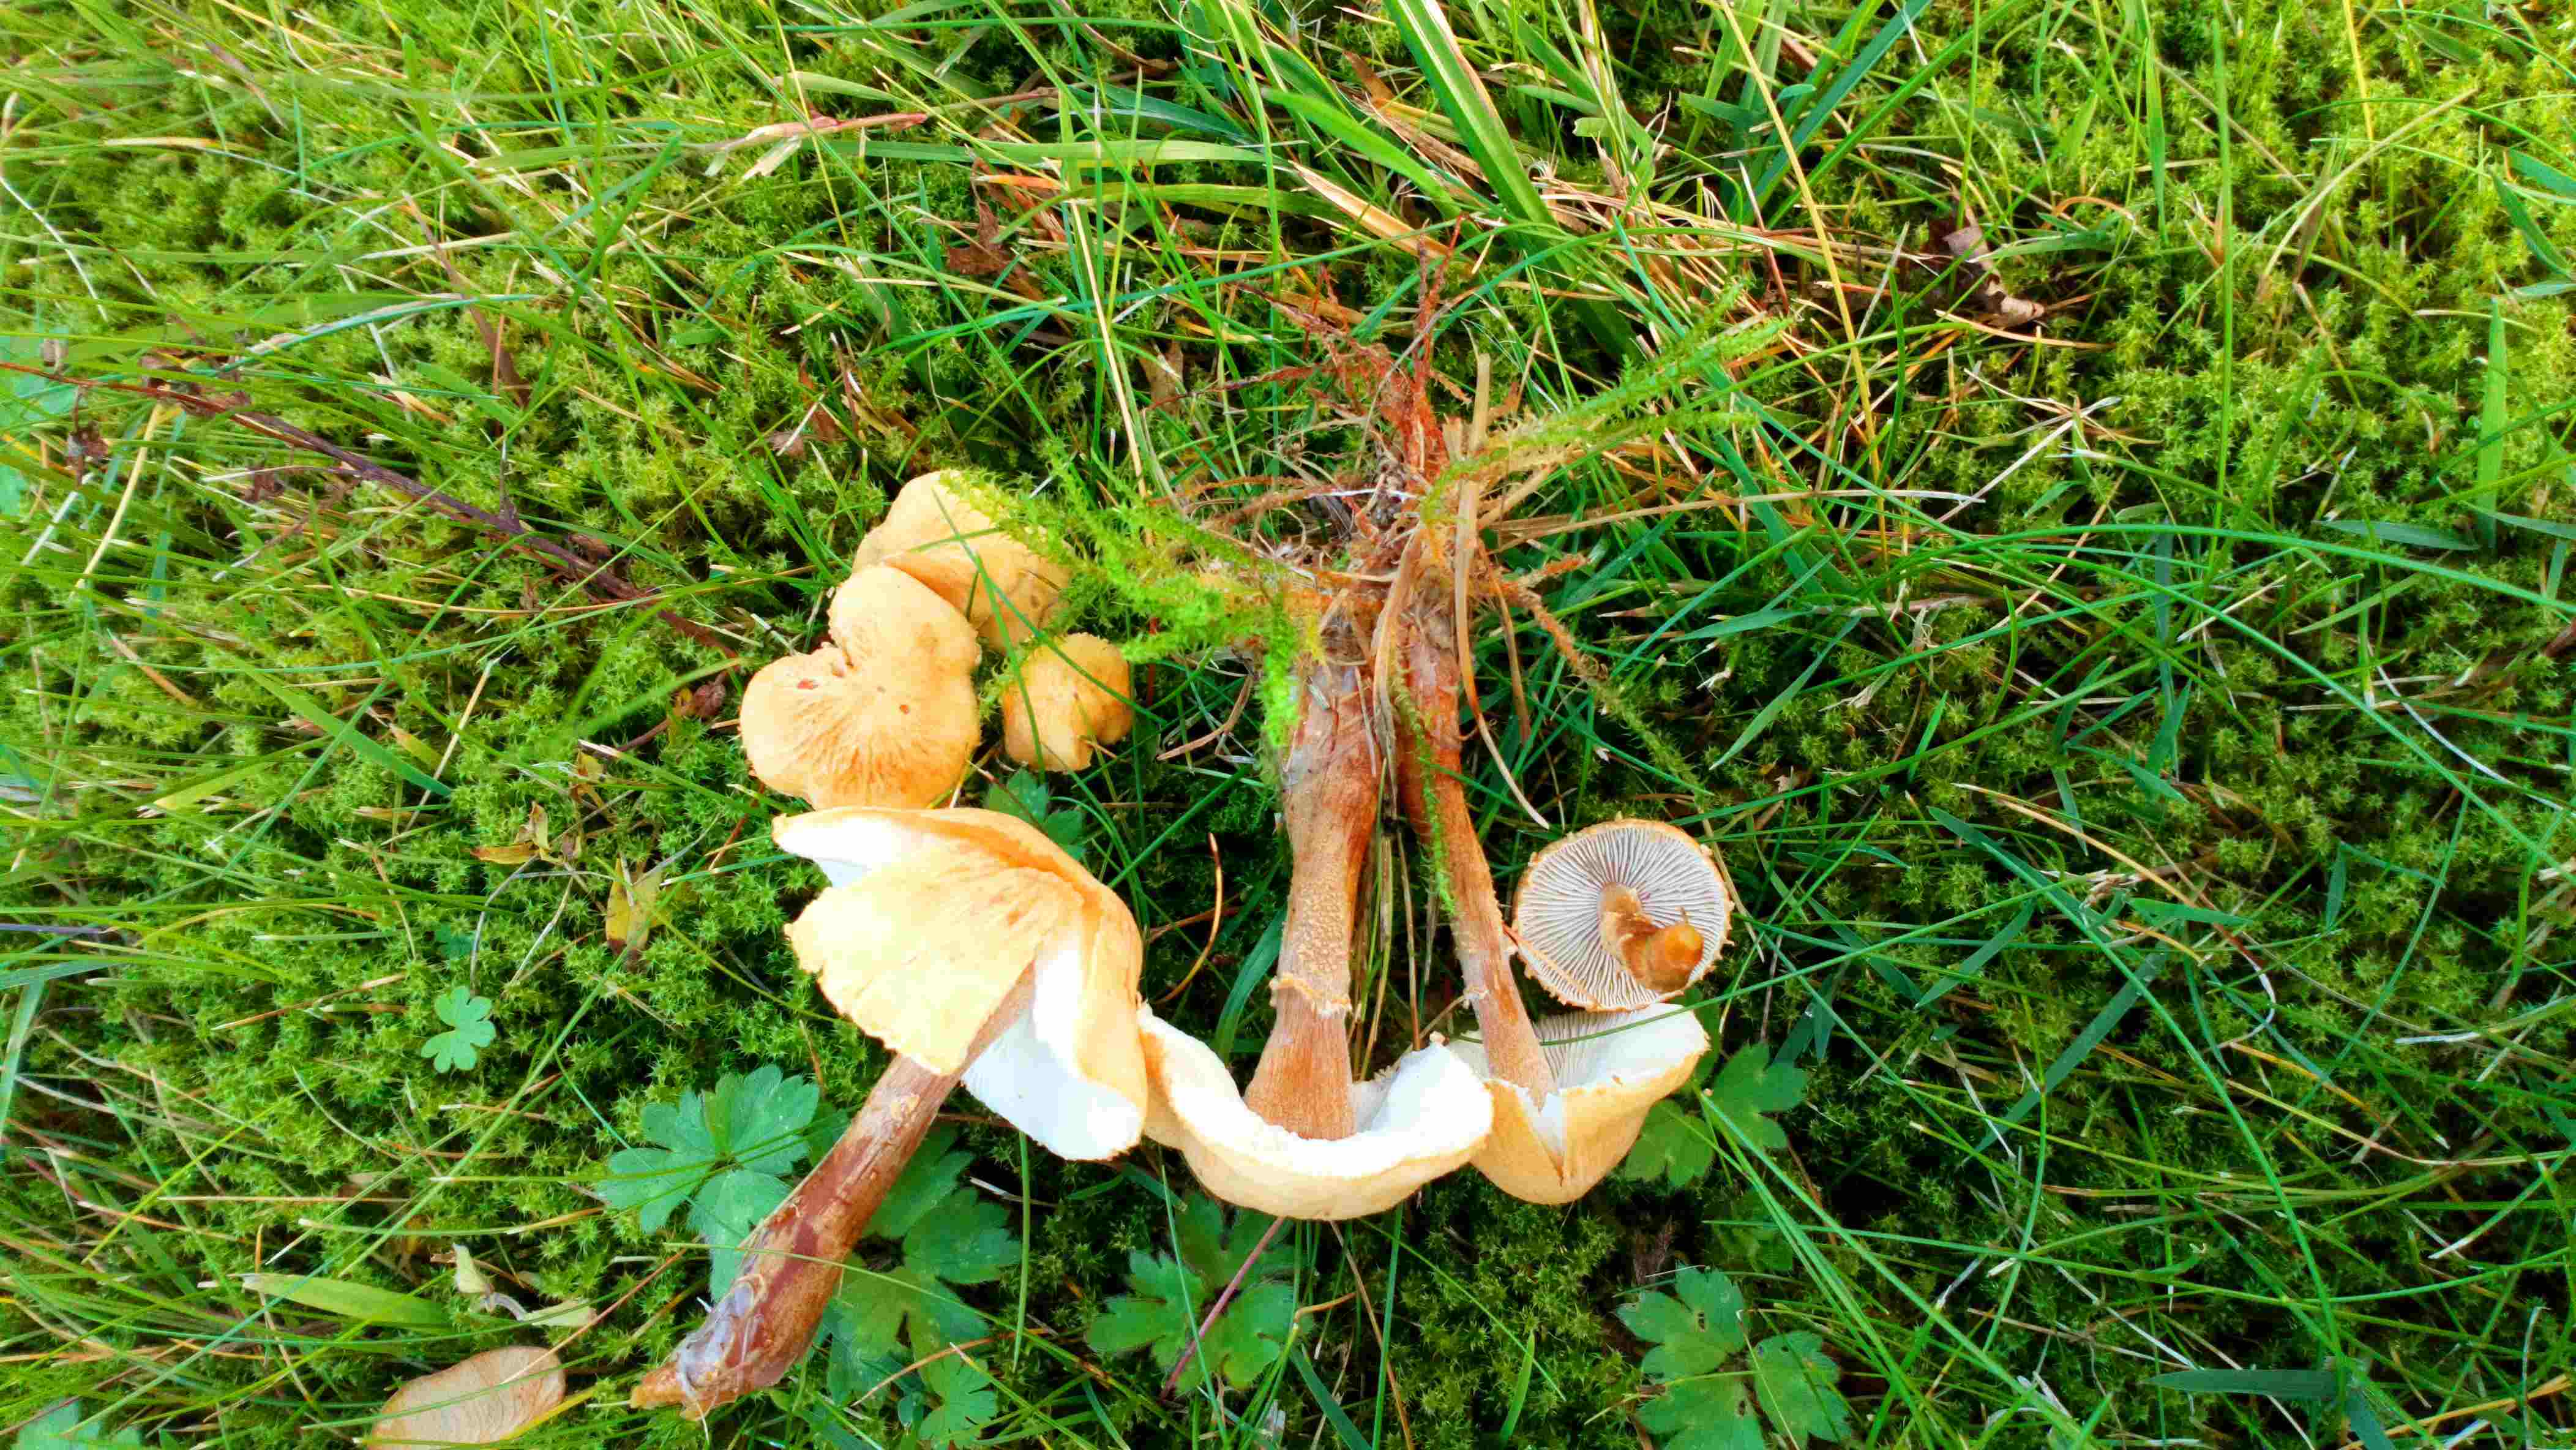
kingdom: Fungi
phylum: Basidiomycota
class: Agaricomycetes
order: Agaricales
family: Tricholomataceae
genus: Cystoderma
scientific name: Cystoderma amianthinum
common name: okkergul grynhat
